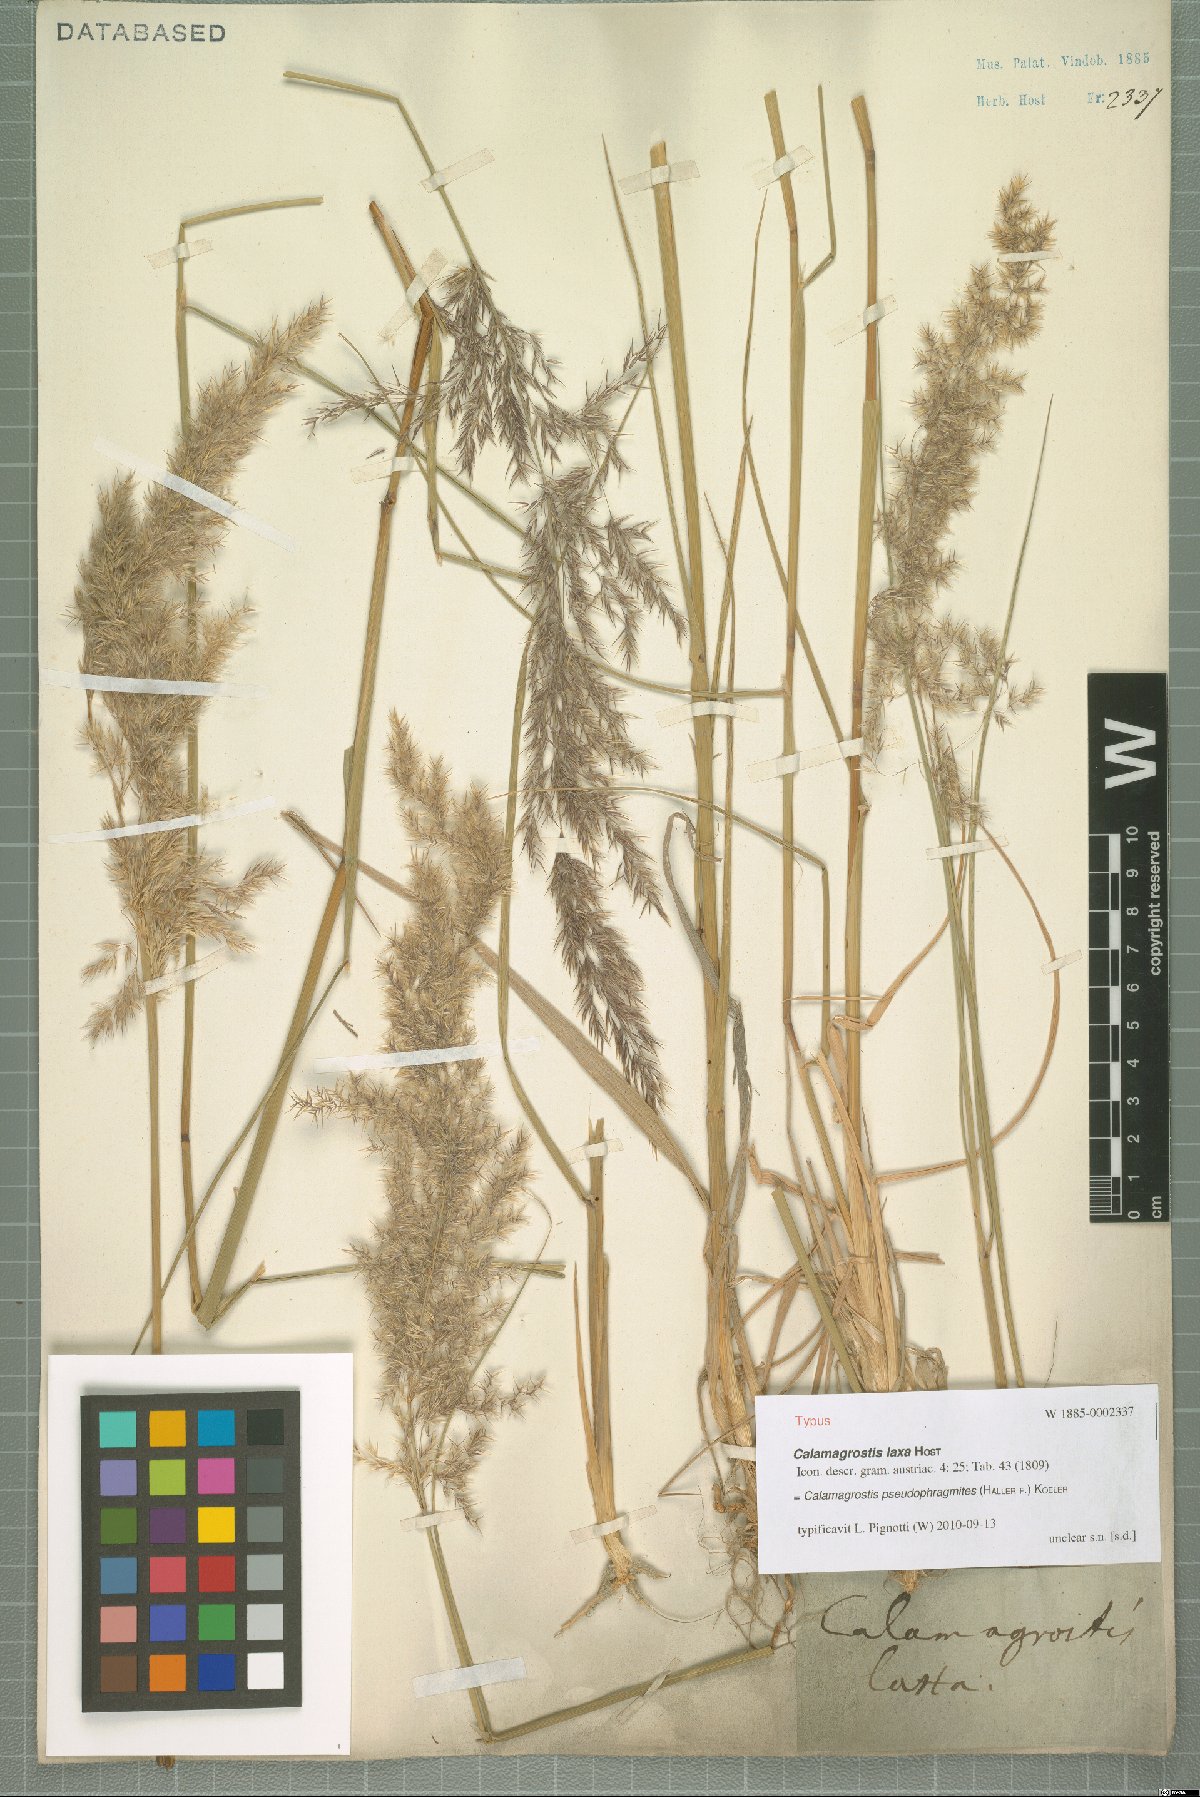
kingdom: Plantae
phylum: Tracheophyta
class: Liliopsida
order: Poales
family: Poaceae
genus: Calamagrostis
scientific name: Calamagrostis pseudophragmites
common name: Coastal small-reed
